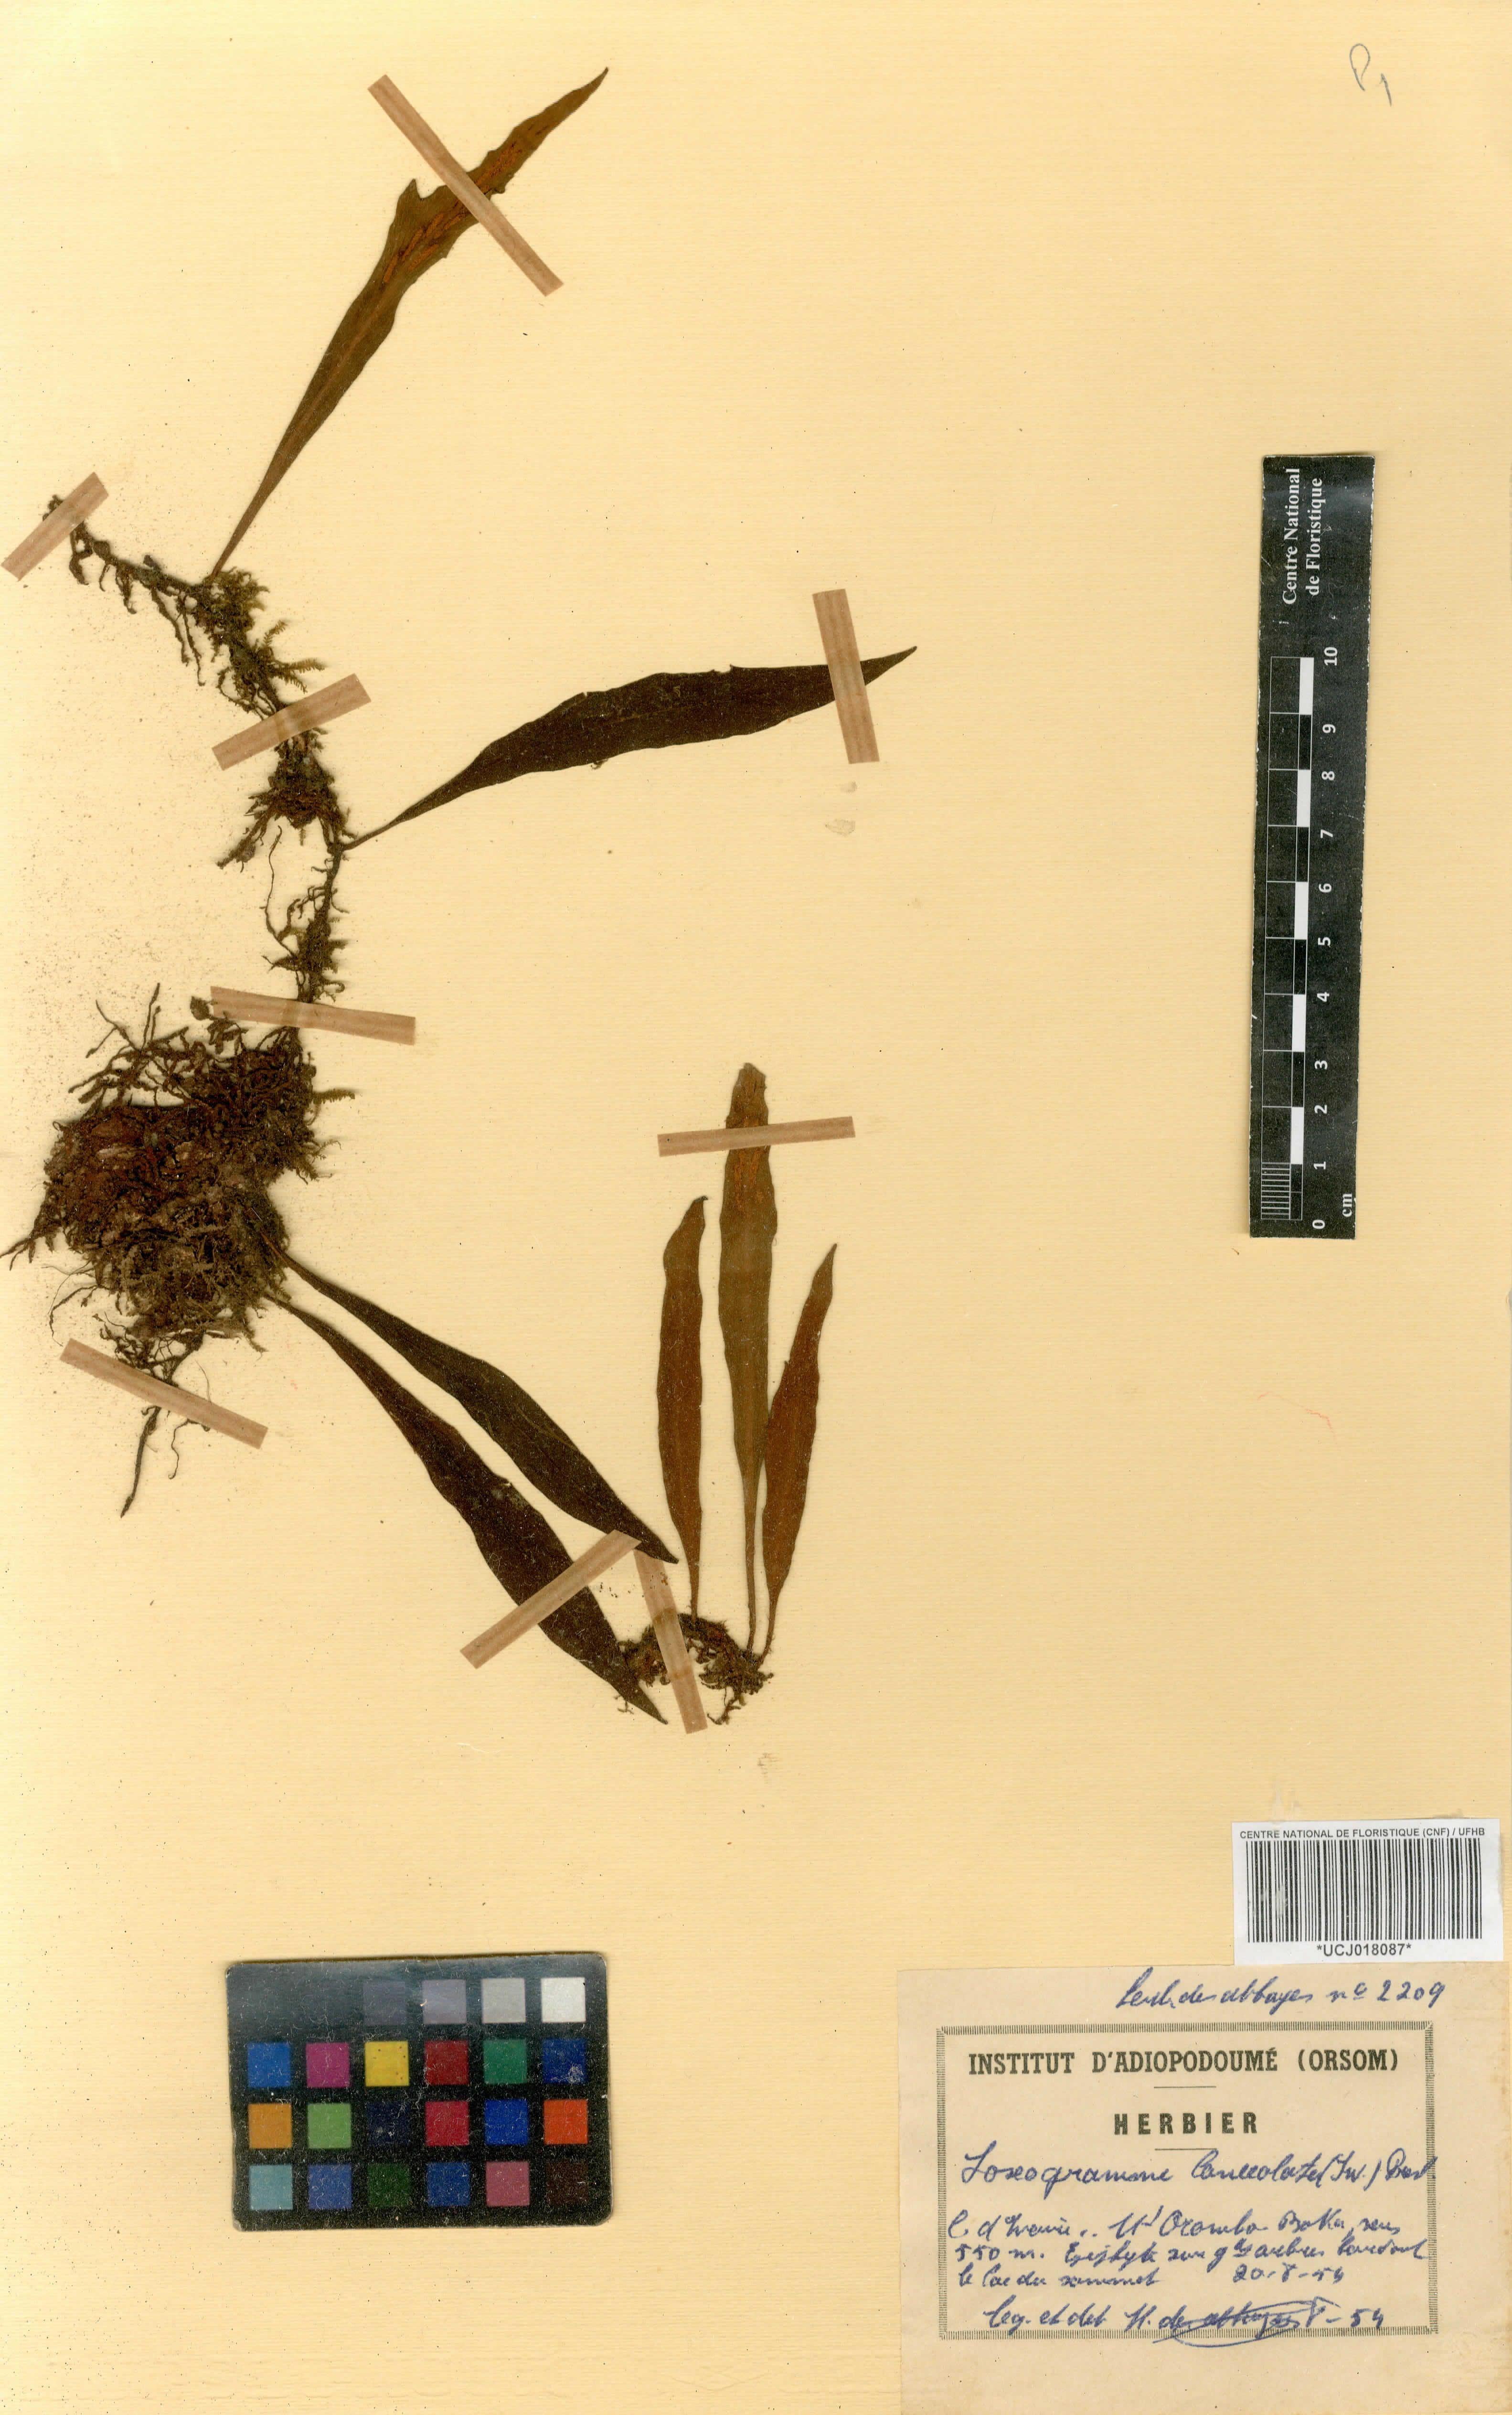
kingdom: Plantae
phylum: Tracheophyta
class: Polypodiopsida
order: Polypodiales
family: Polypodiaceae
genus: Loxogramme
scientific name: Loxogramme lanceolata
